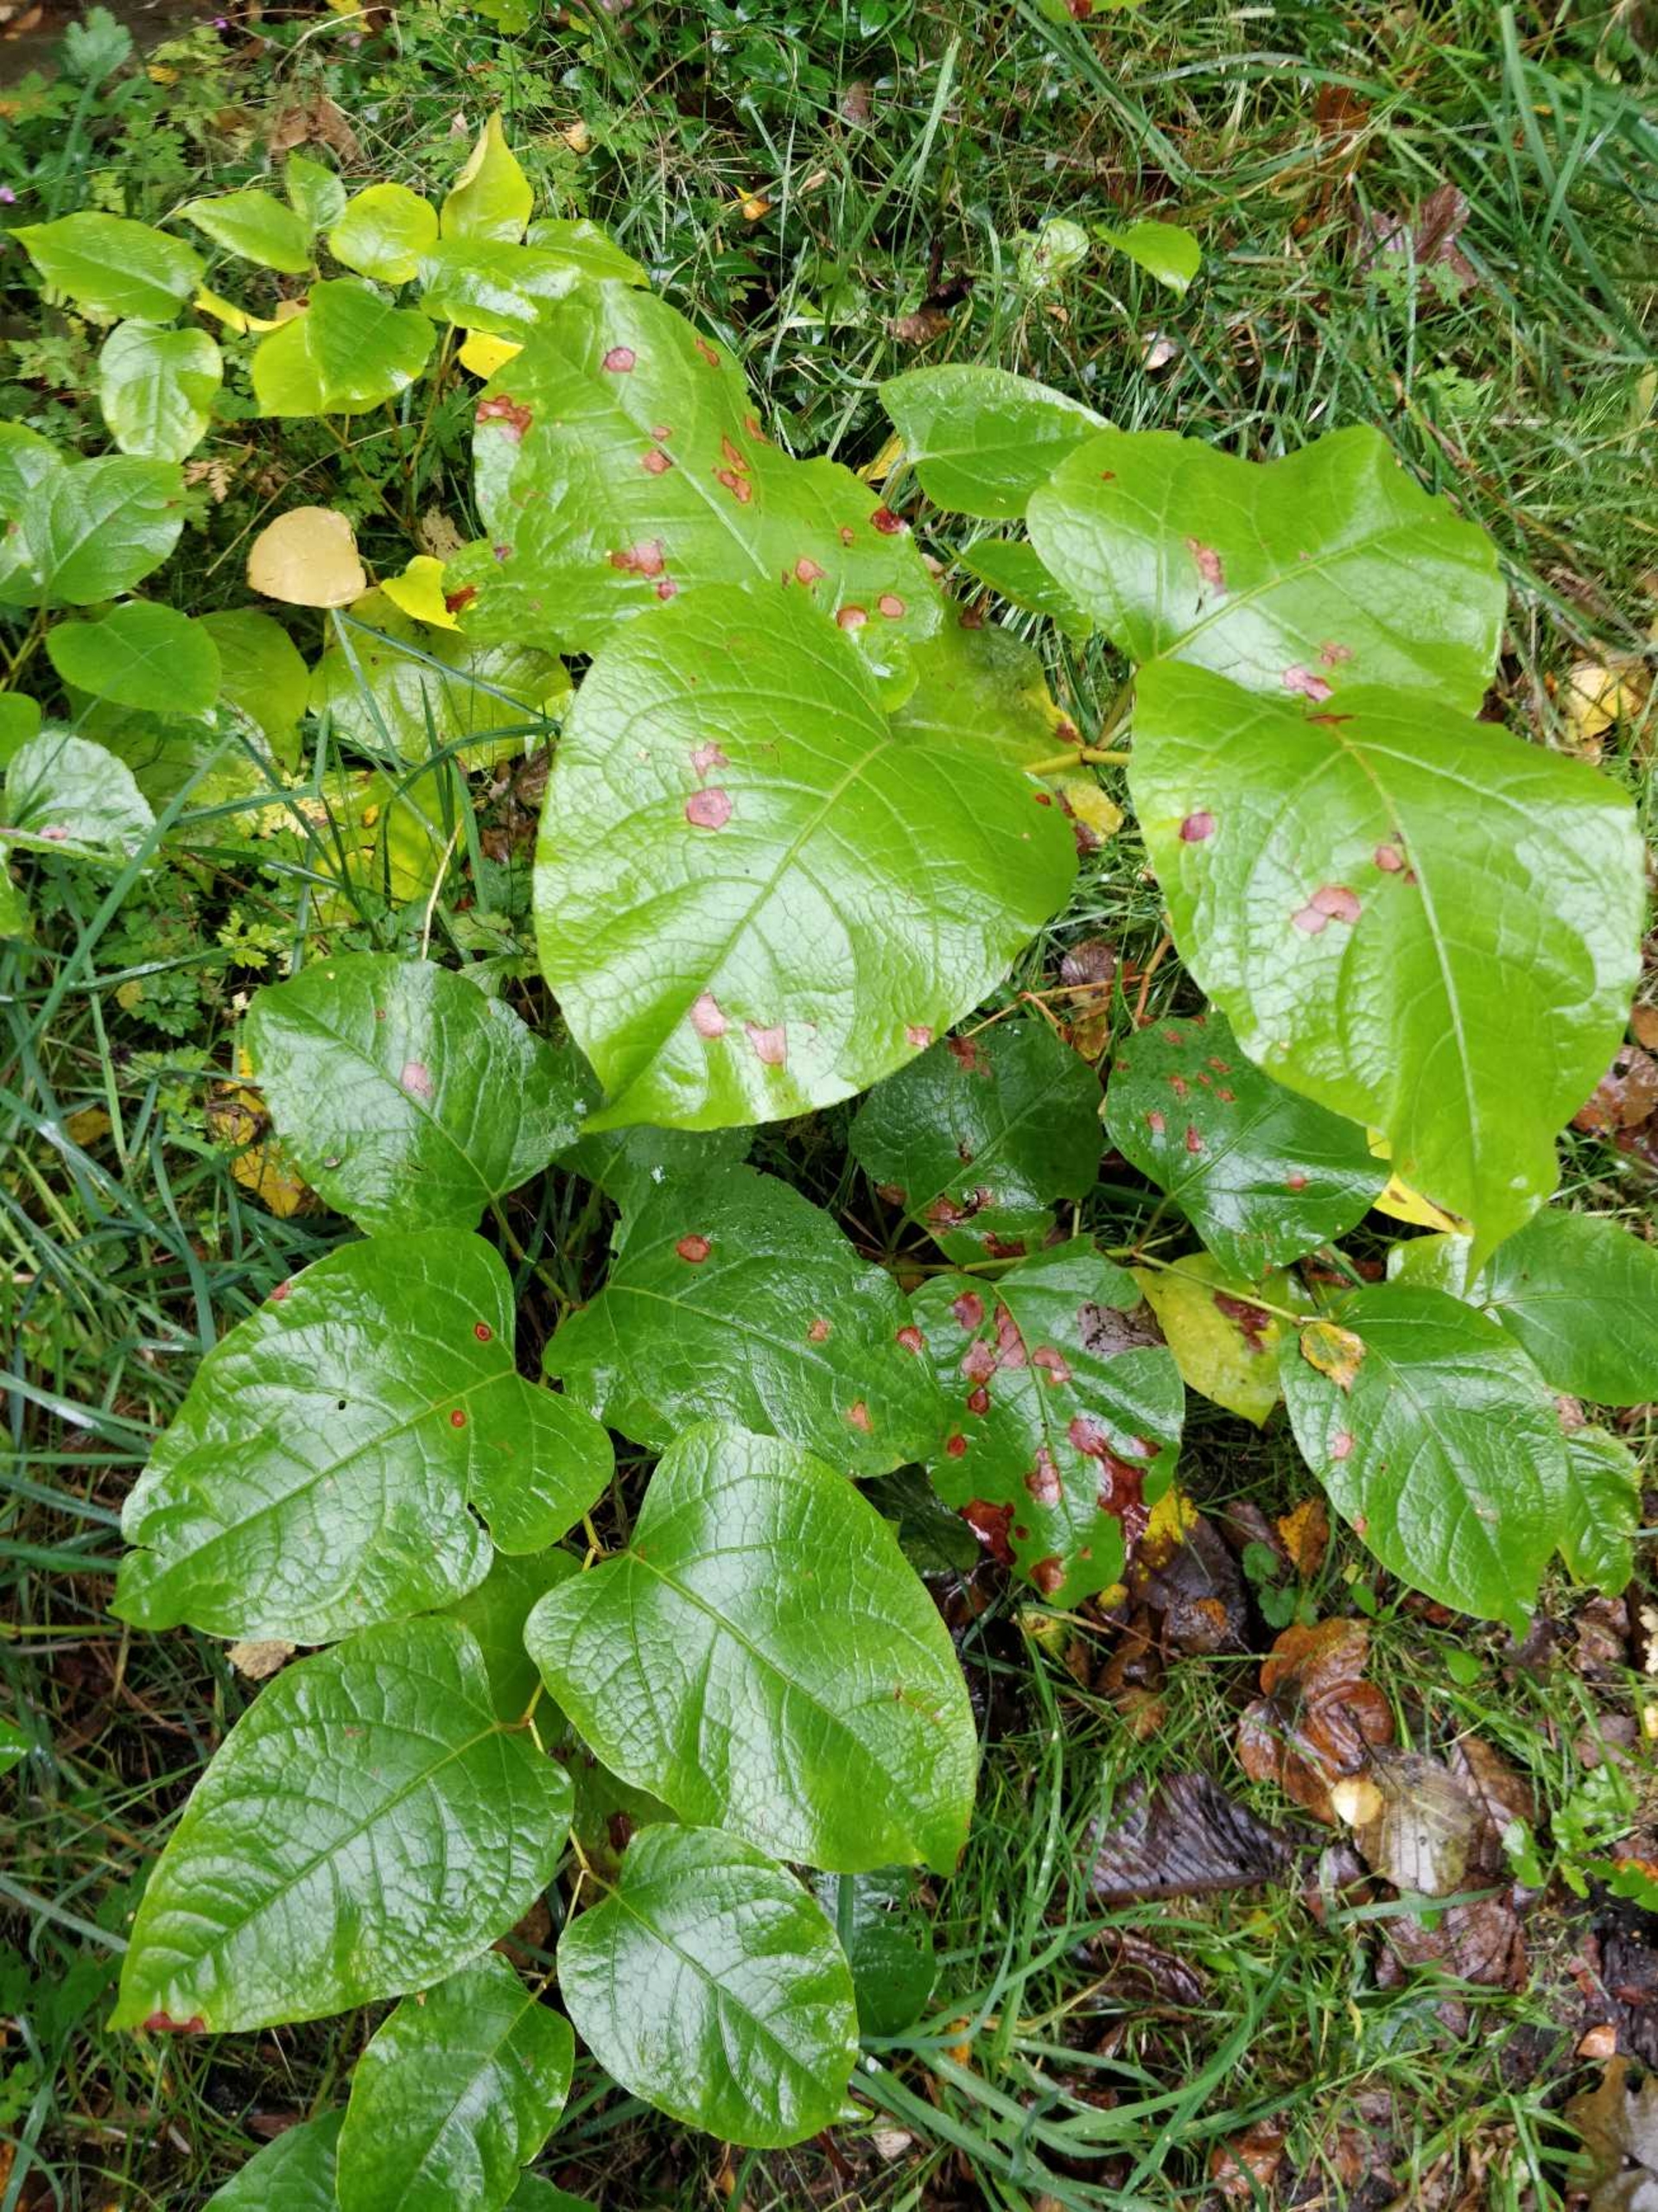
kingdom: Plantae
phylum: Tracheophyta
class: Magnoliopsida
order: Caryophyllales
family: Polygonaceae
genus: Reynoutria
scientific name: Reynoutria bohemica
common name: Hybrid-pileurt
